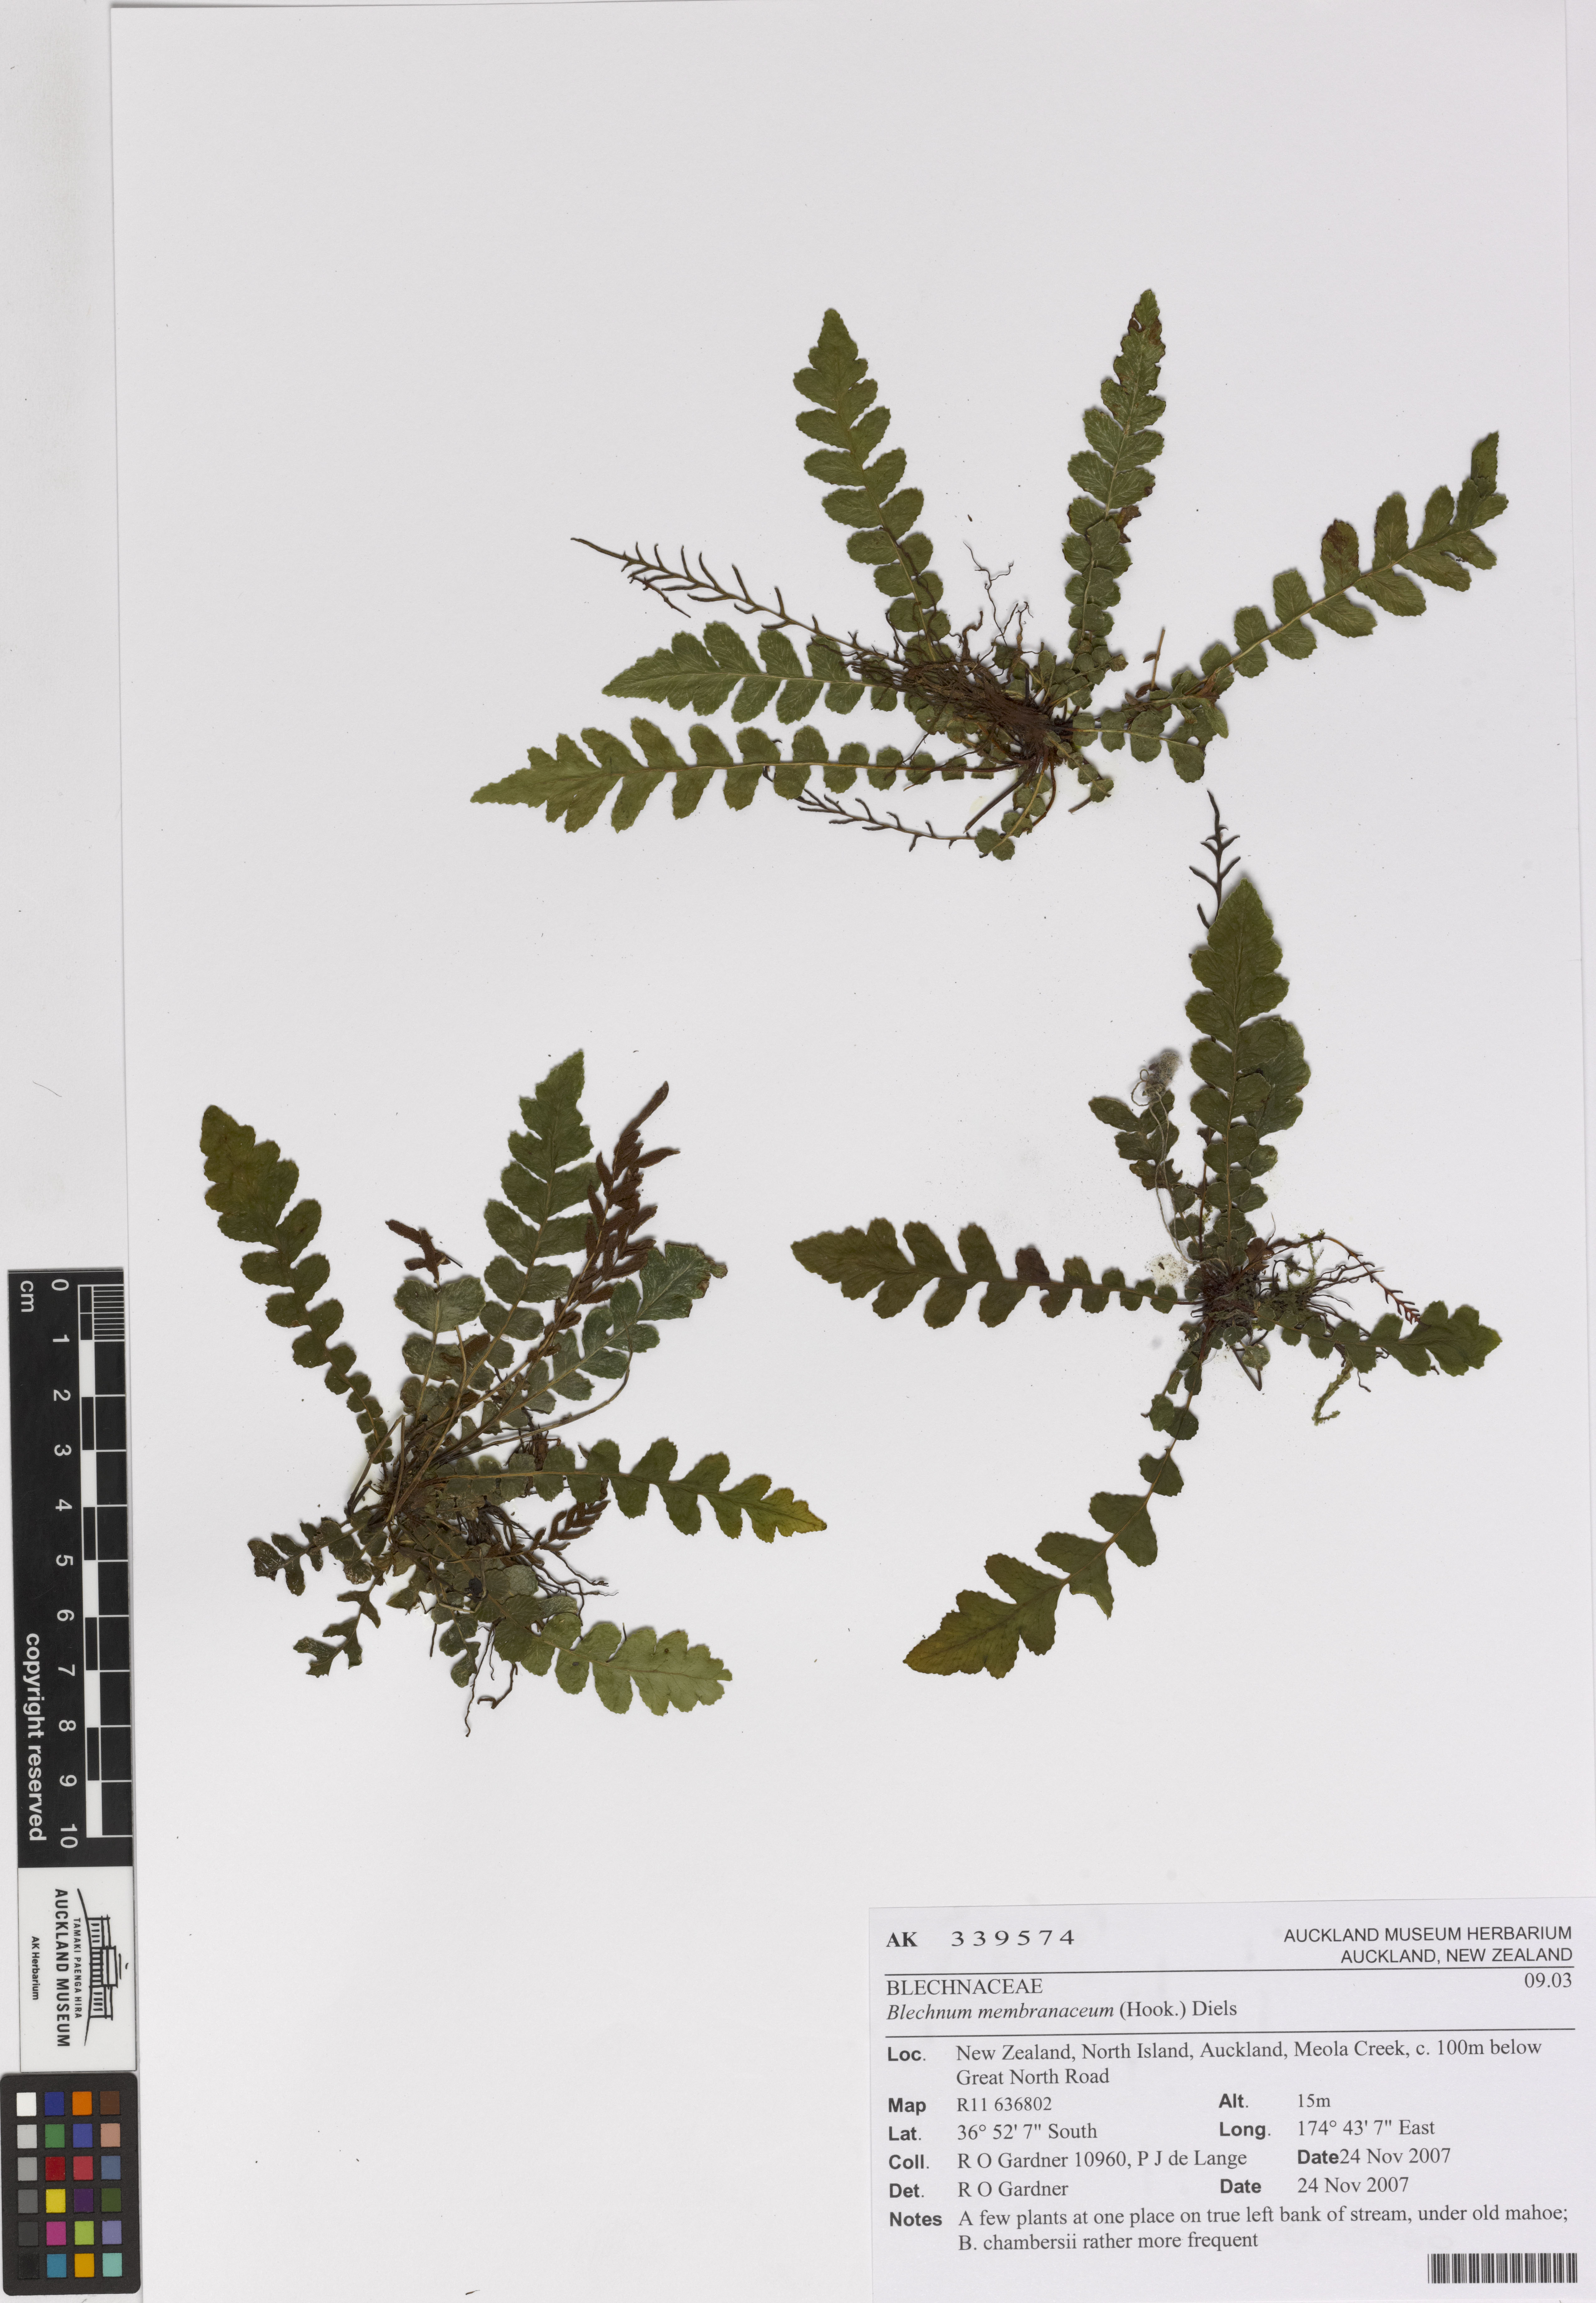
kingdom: Plantae
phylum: Tracheophyta
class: Polypodiopsida
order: Polypodiales
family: Blechnaceae
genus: Austroblechnum
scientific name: Austroblechnum membranaceum
